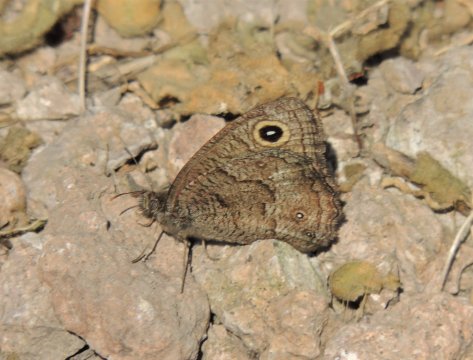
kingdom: Animalia
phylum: Arthropoda
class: Insecta
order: Lepidoptera
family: Nymphalidae
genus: Cercyonis
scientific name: Cercyonis sthenele
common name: Great Basin Wood-Nymph
